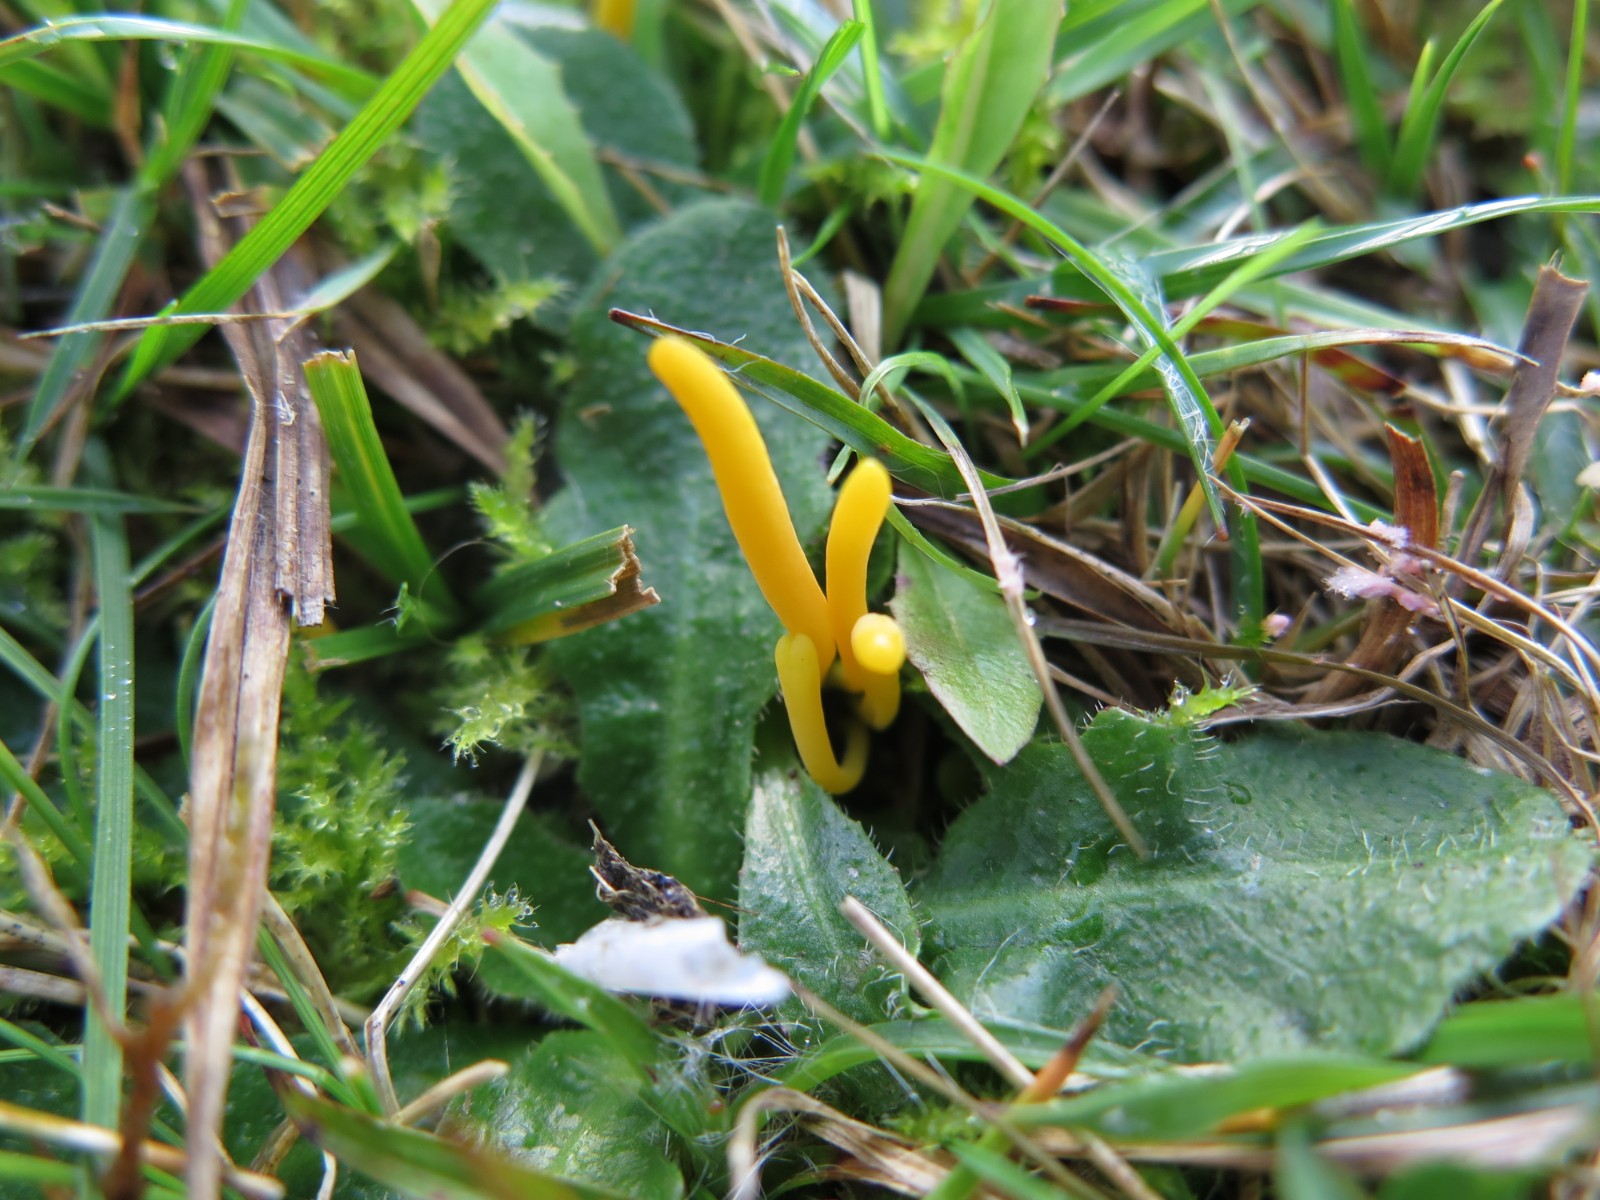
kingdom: Fungi
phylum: Basidiomycota
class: Agaricomycetes
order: Agaricales
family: Clavariaceae
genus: Clavulinopsis
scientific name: Clavulinopsis
